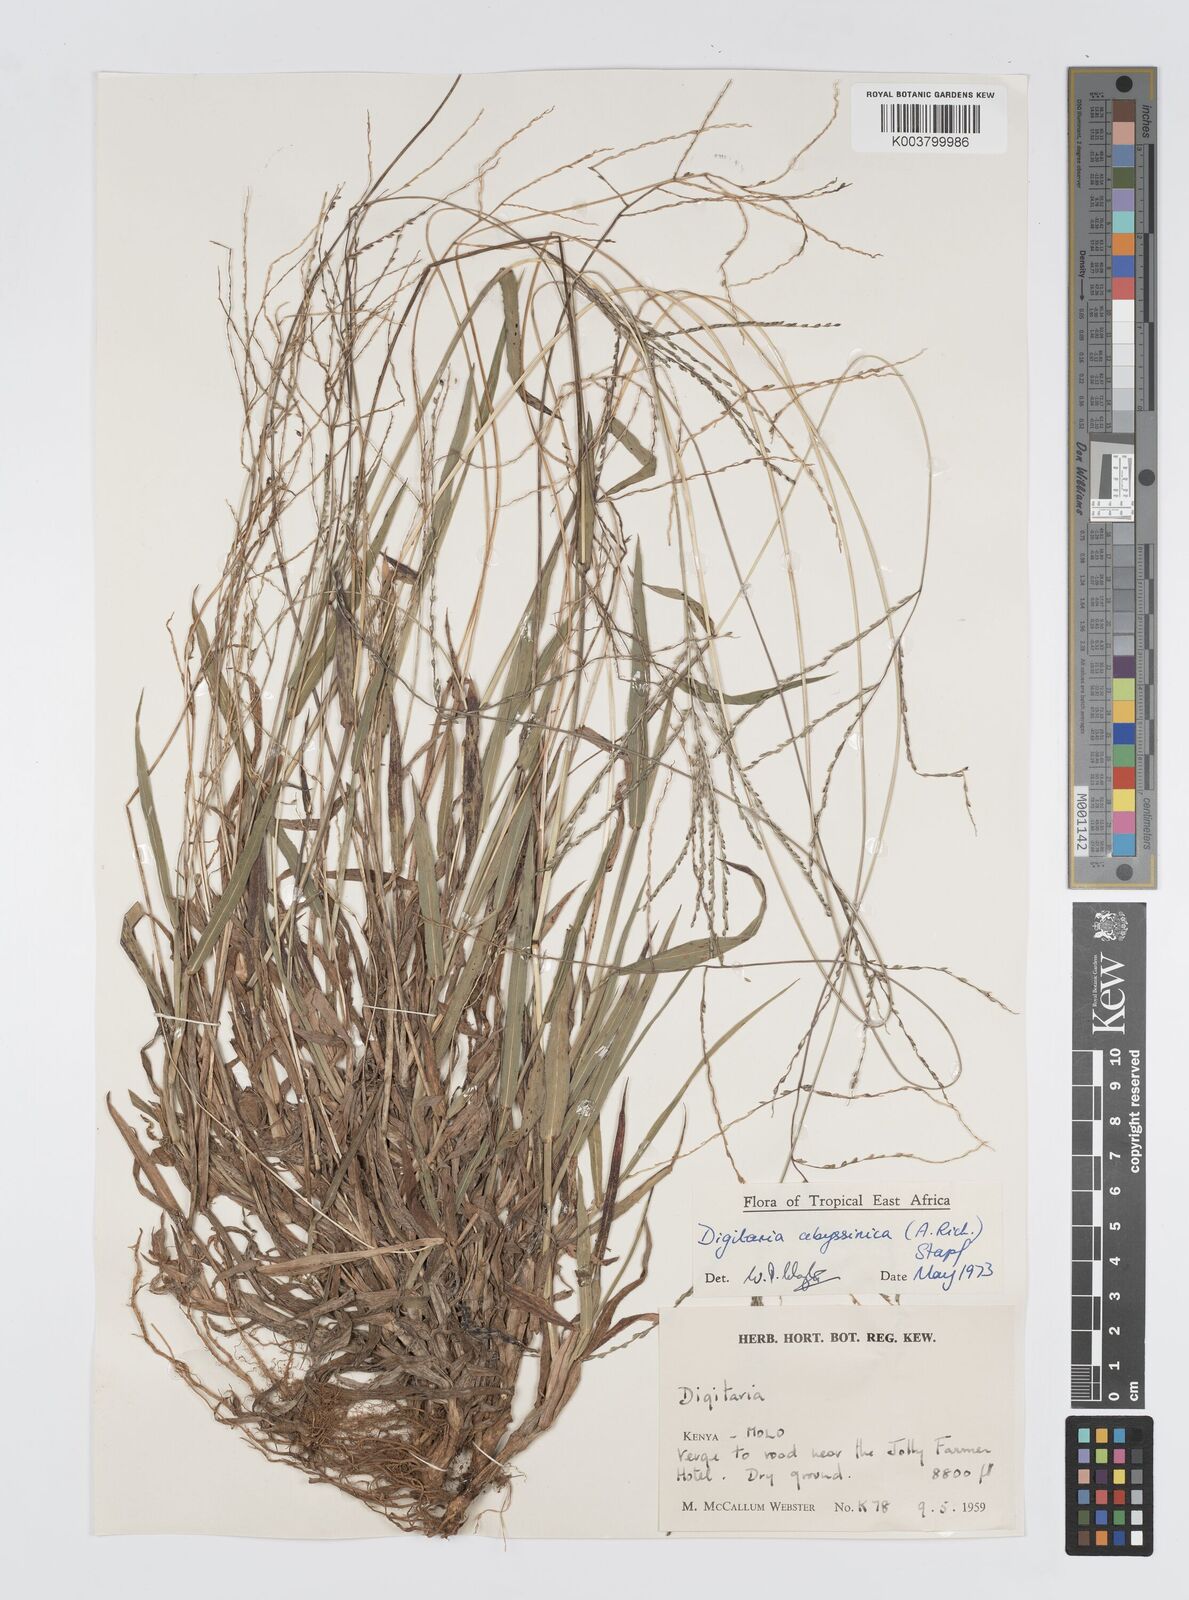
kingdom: Plantae
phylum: Tracheophyta
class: Liliopsida
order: Poales
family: Poaceae
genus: Digitaria
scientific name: Digitaria abyssinica
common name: African couchgrass
